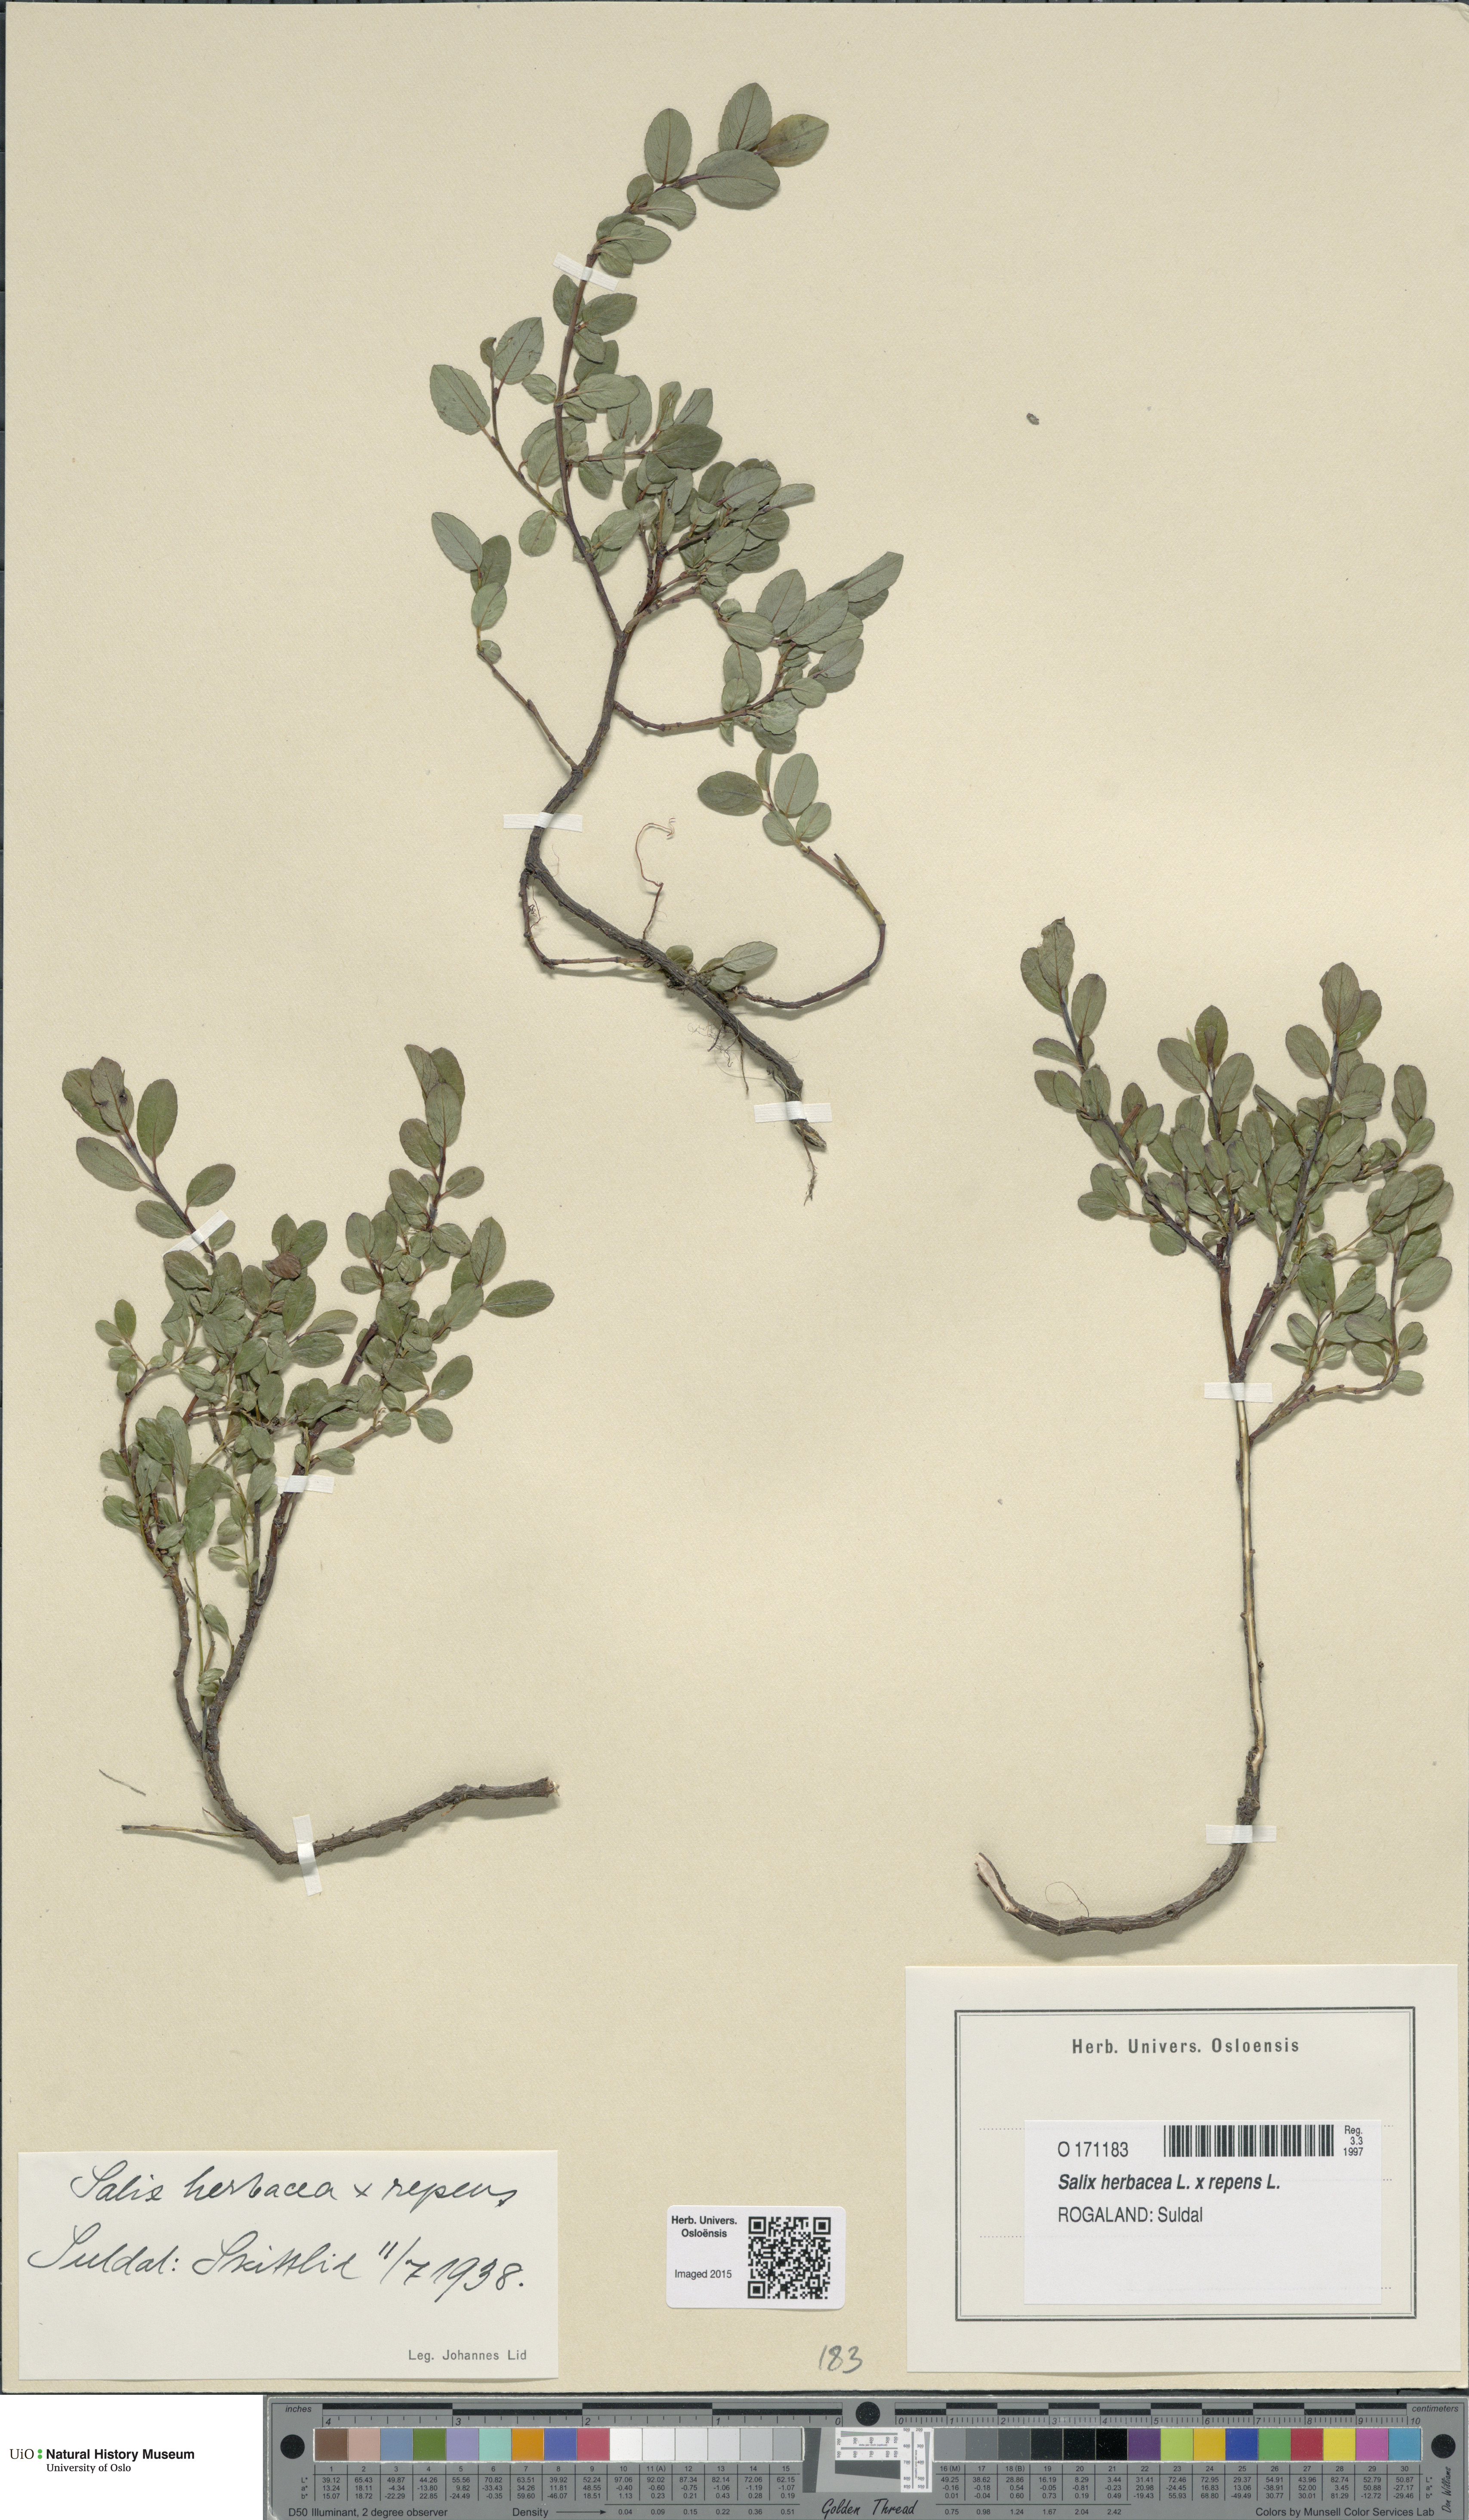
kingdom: Plantae
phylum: Tracheophyta
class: Magnoliopsida
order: Malpighiales
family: Salicaceae
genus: Salix
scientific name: Salix
